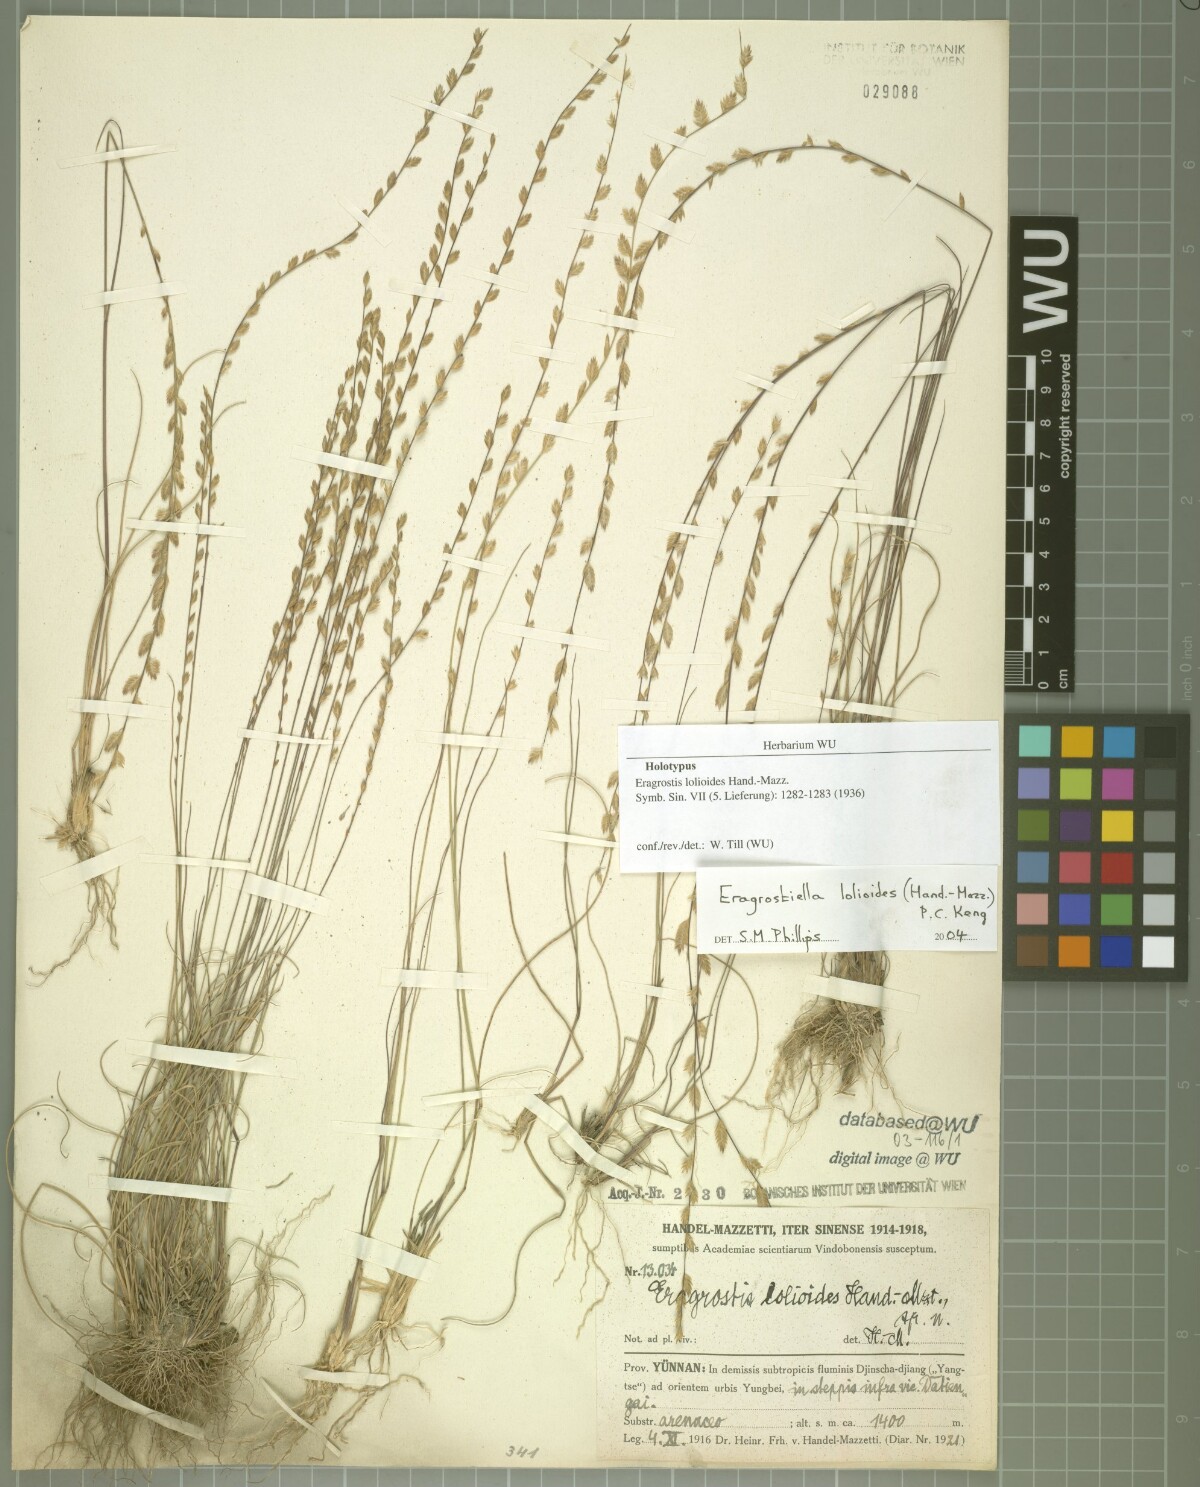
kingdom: Plantae
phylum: Tracheophyta
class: Liliopsida
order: Poales
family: Poaceae
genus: Eragrostiella
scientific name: Eragrostiella lolioides
